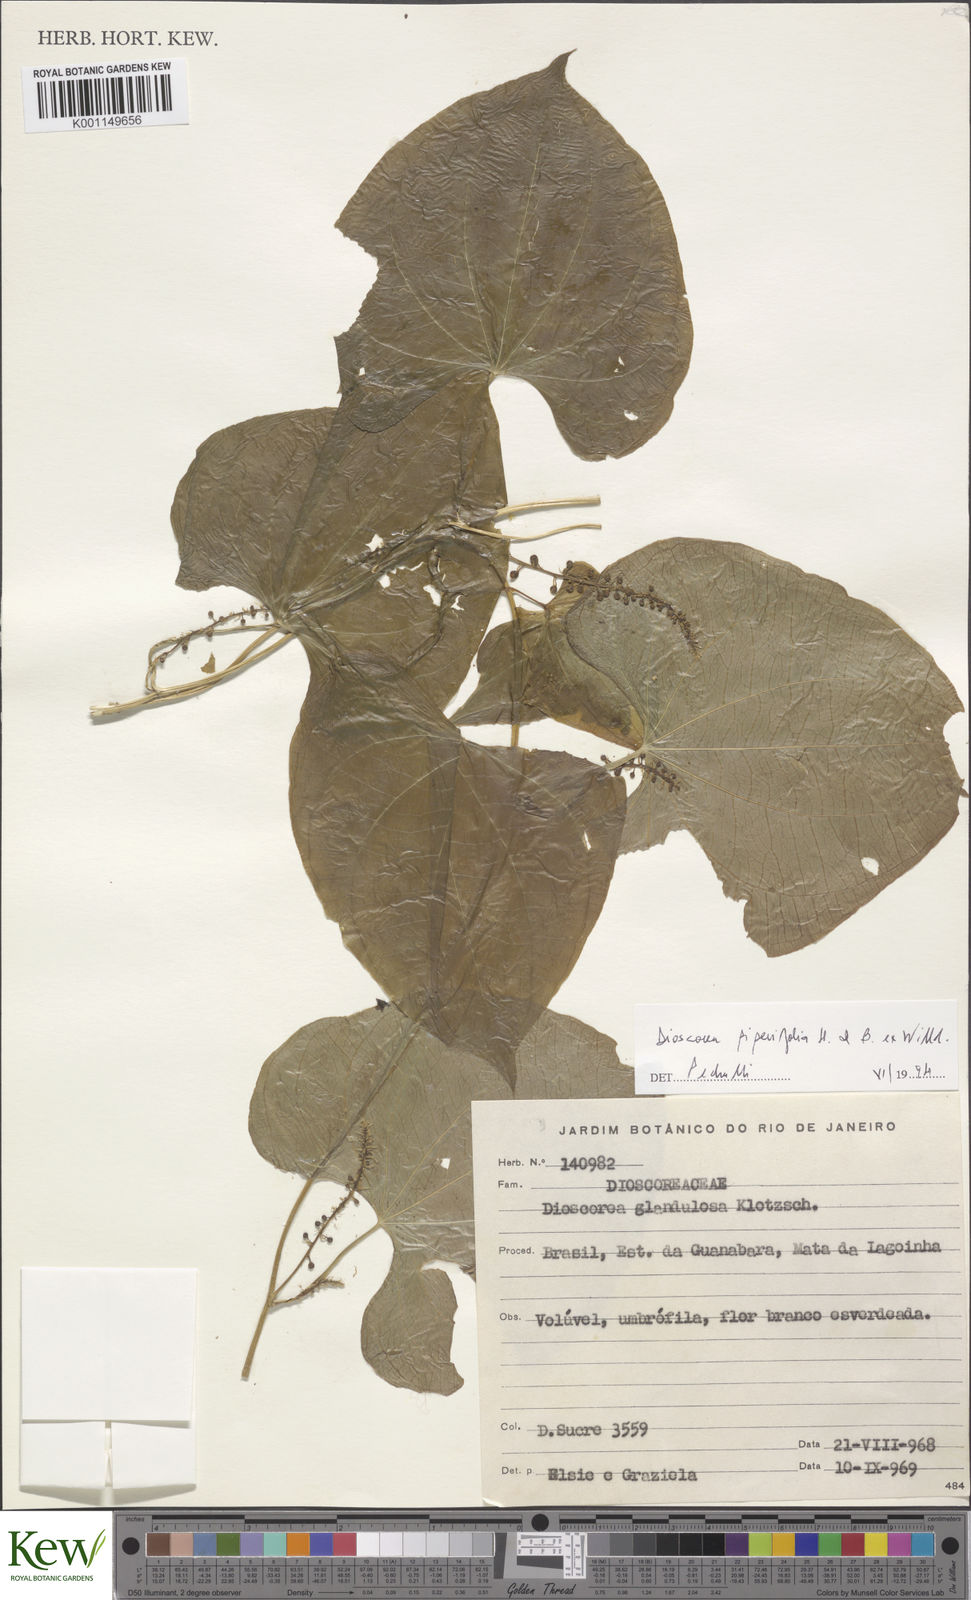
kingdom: Plantae
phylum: Tracheophyta
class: Liliopsida
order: Dioscoreales
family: Dioscoreaceae
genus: Dioscorea
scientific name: Dioscorea glandulosa
